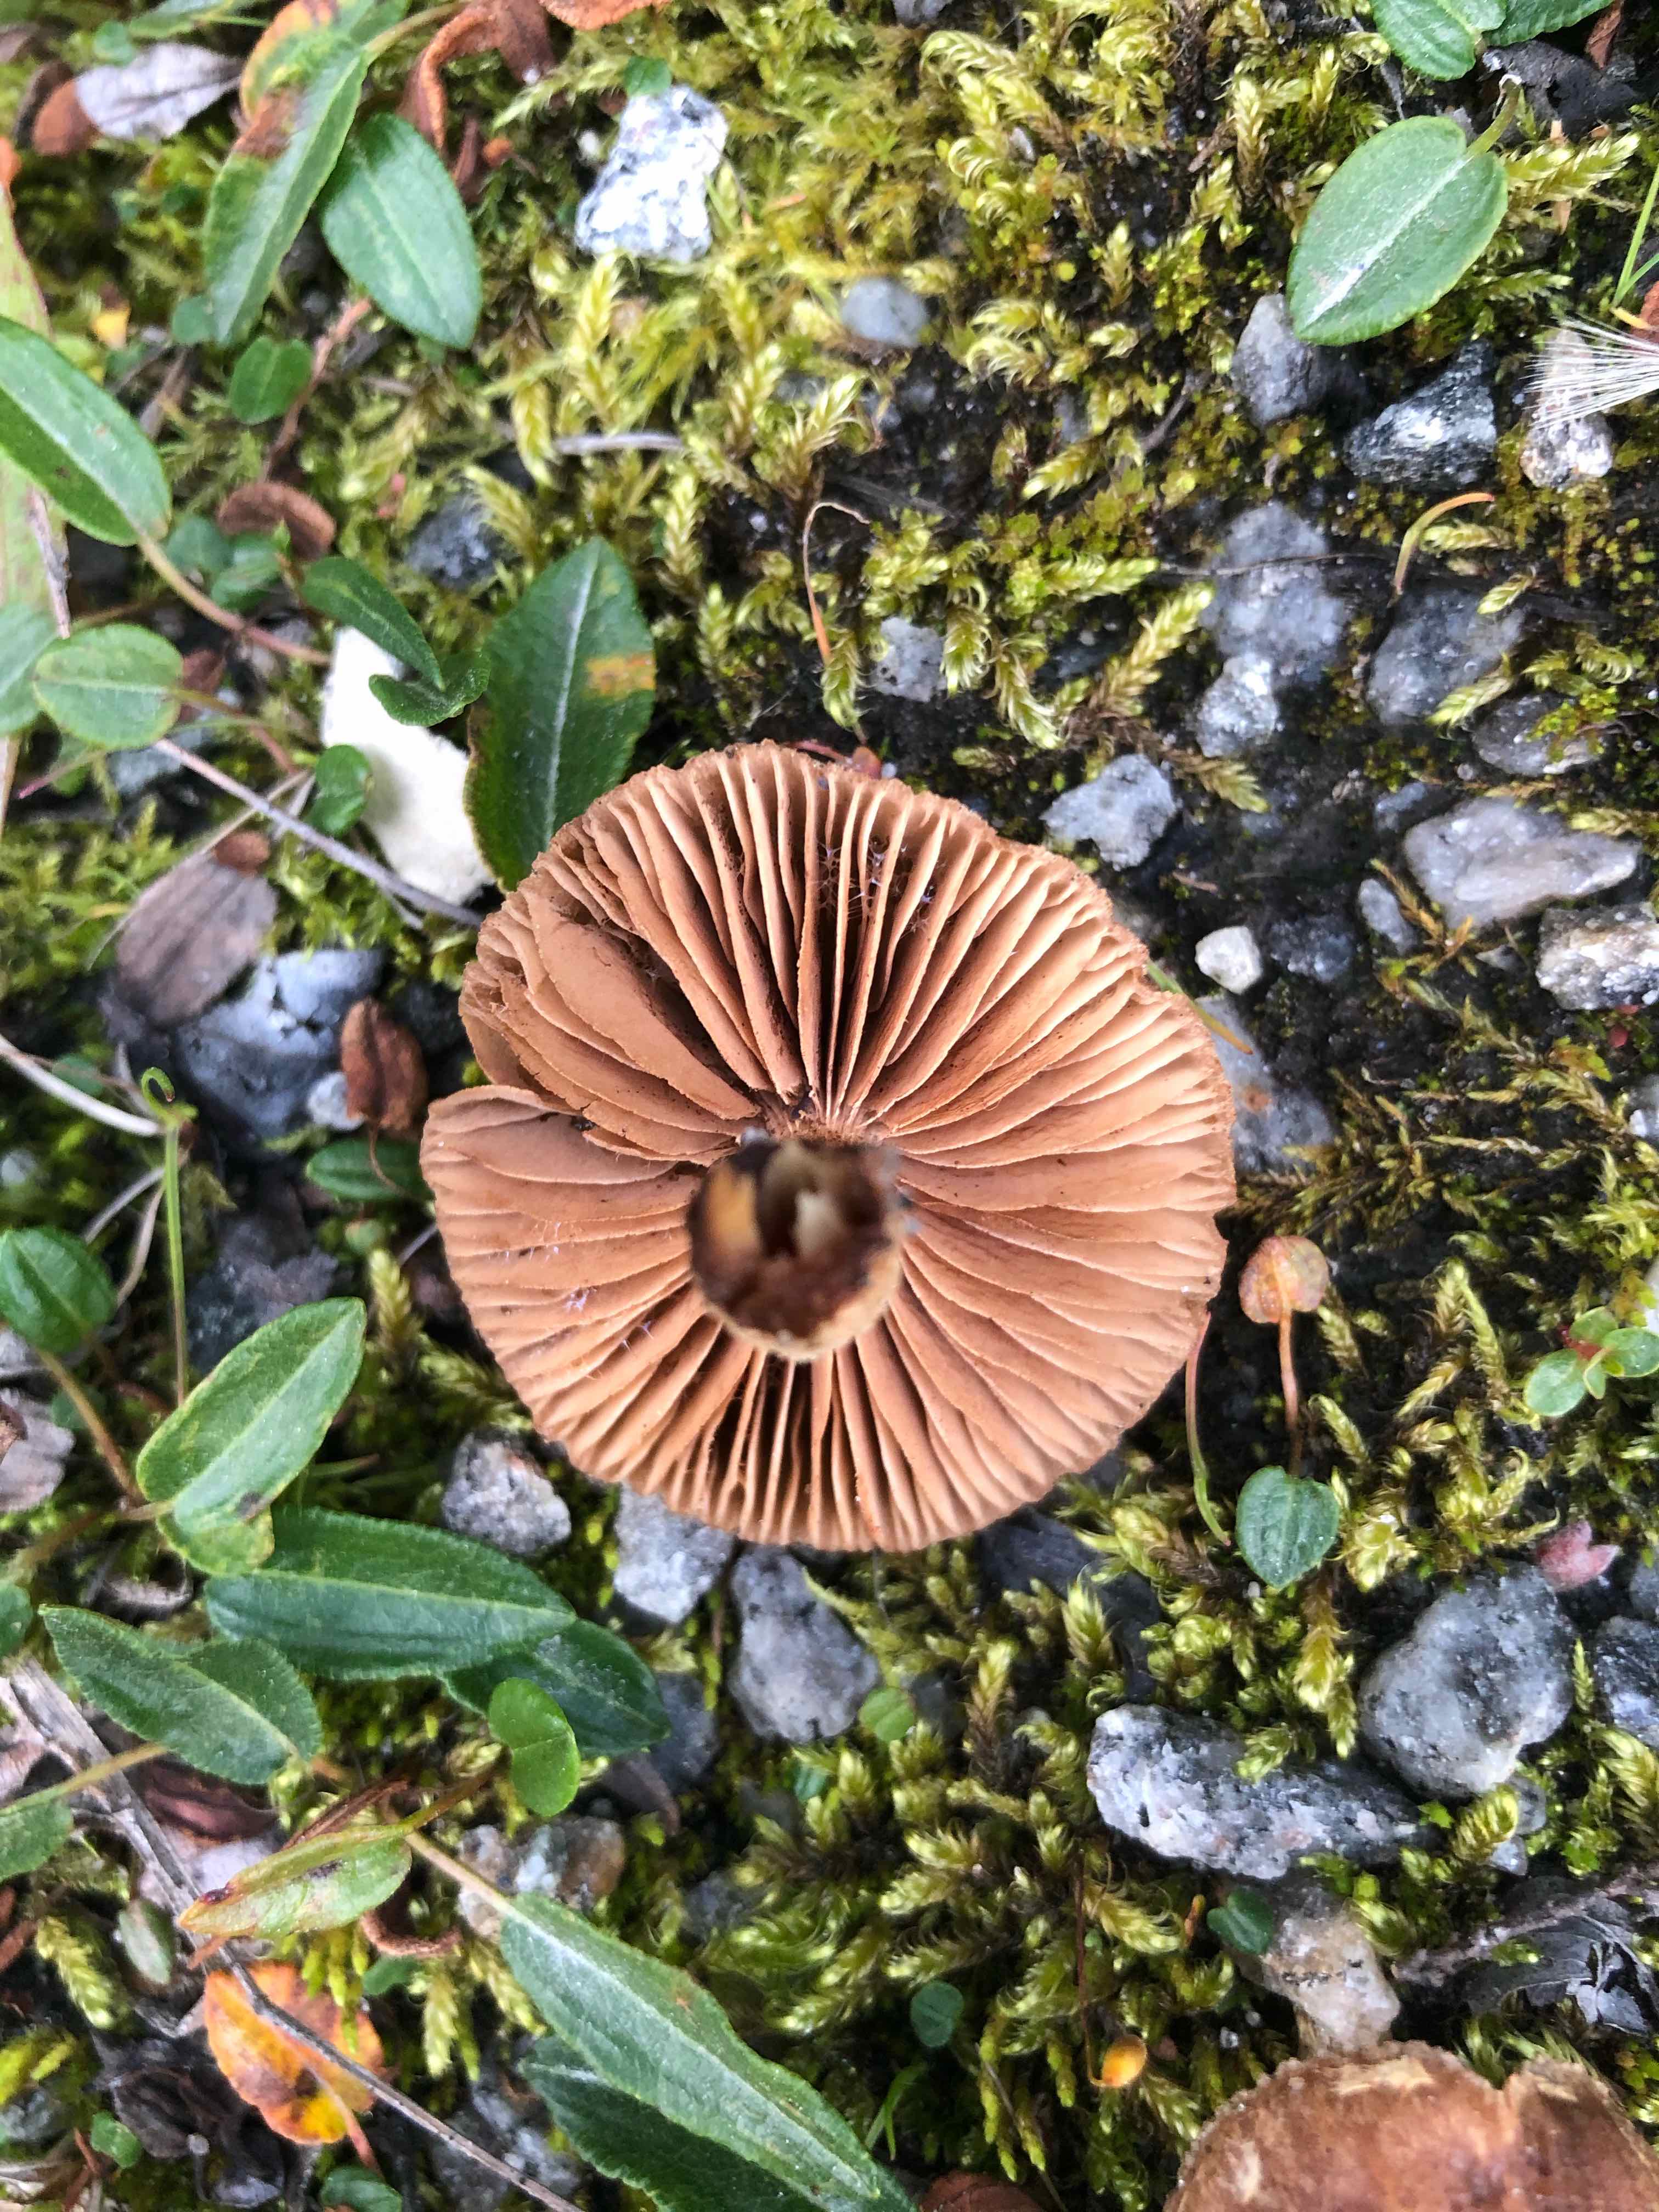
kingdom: Fungi
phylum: Basidiomycota
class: Agaricomycetes
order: Agaricales
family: Hymenogastraceae
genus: Hebeloma
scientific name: Hebeloma
